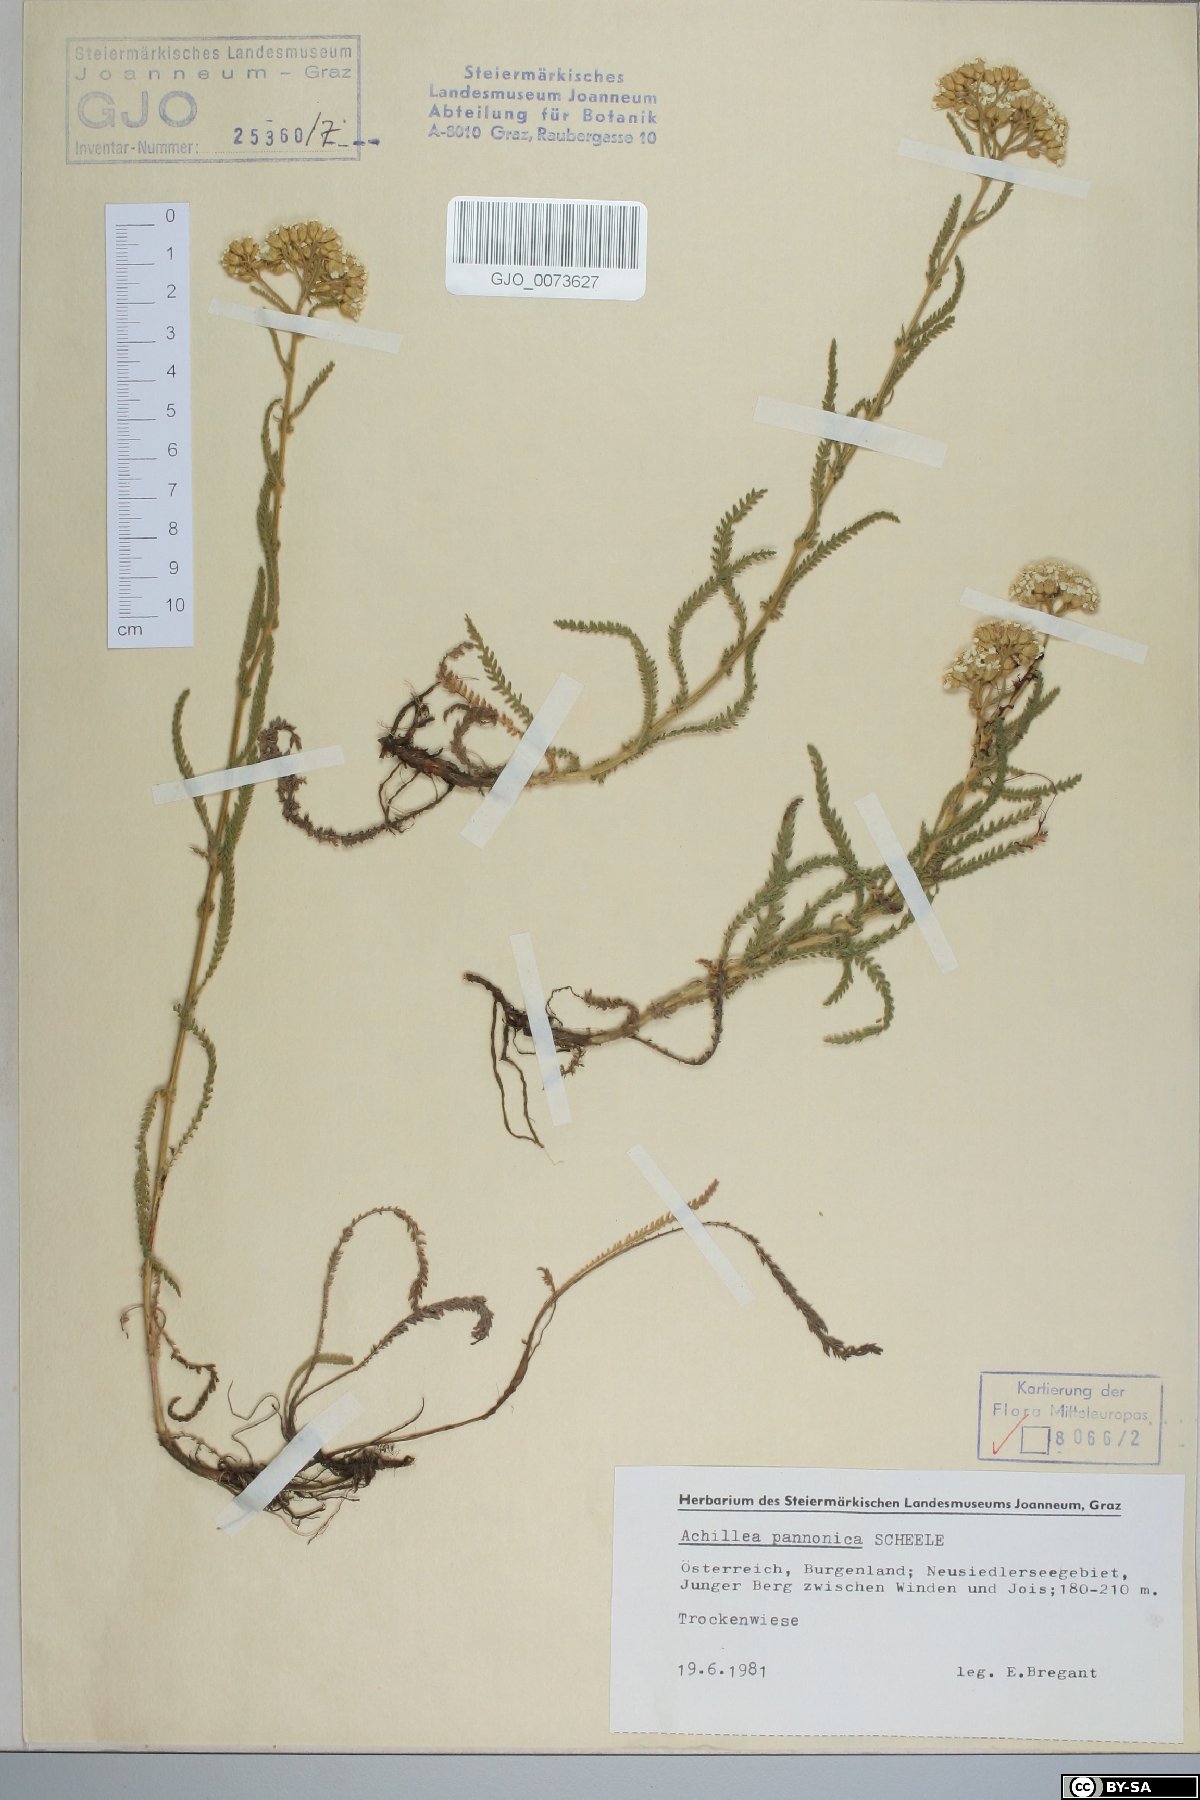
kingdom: Plantae
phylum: Tracheophyta
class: Magnoliopsida
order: Asterales
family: Asteraceae
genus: Achillea
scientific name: Achillea pannonica
